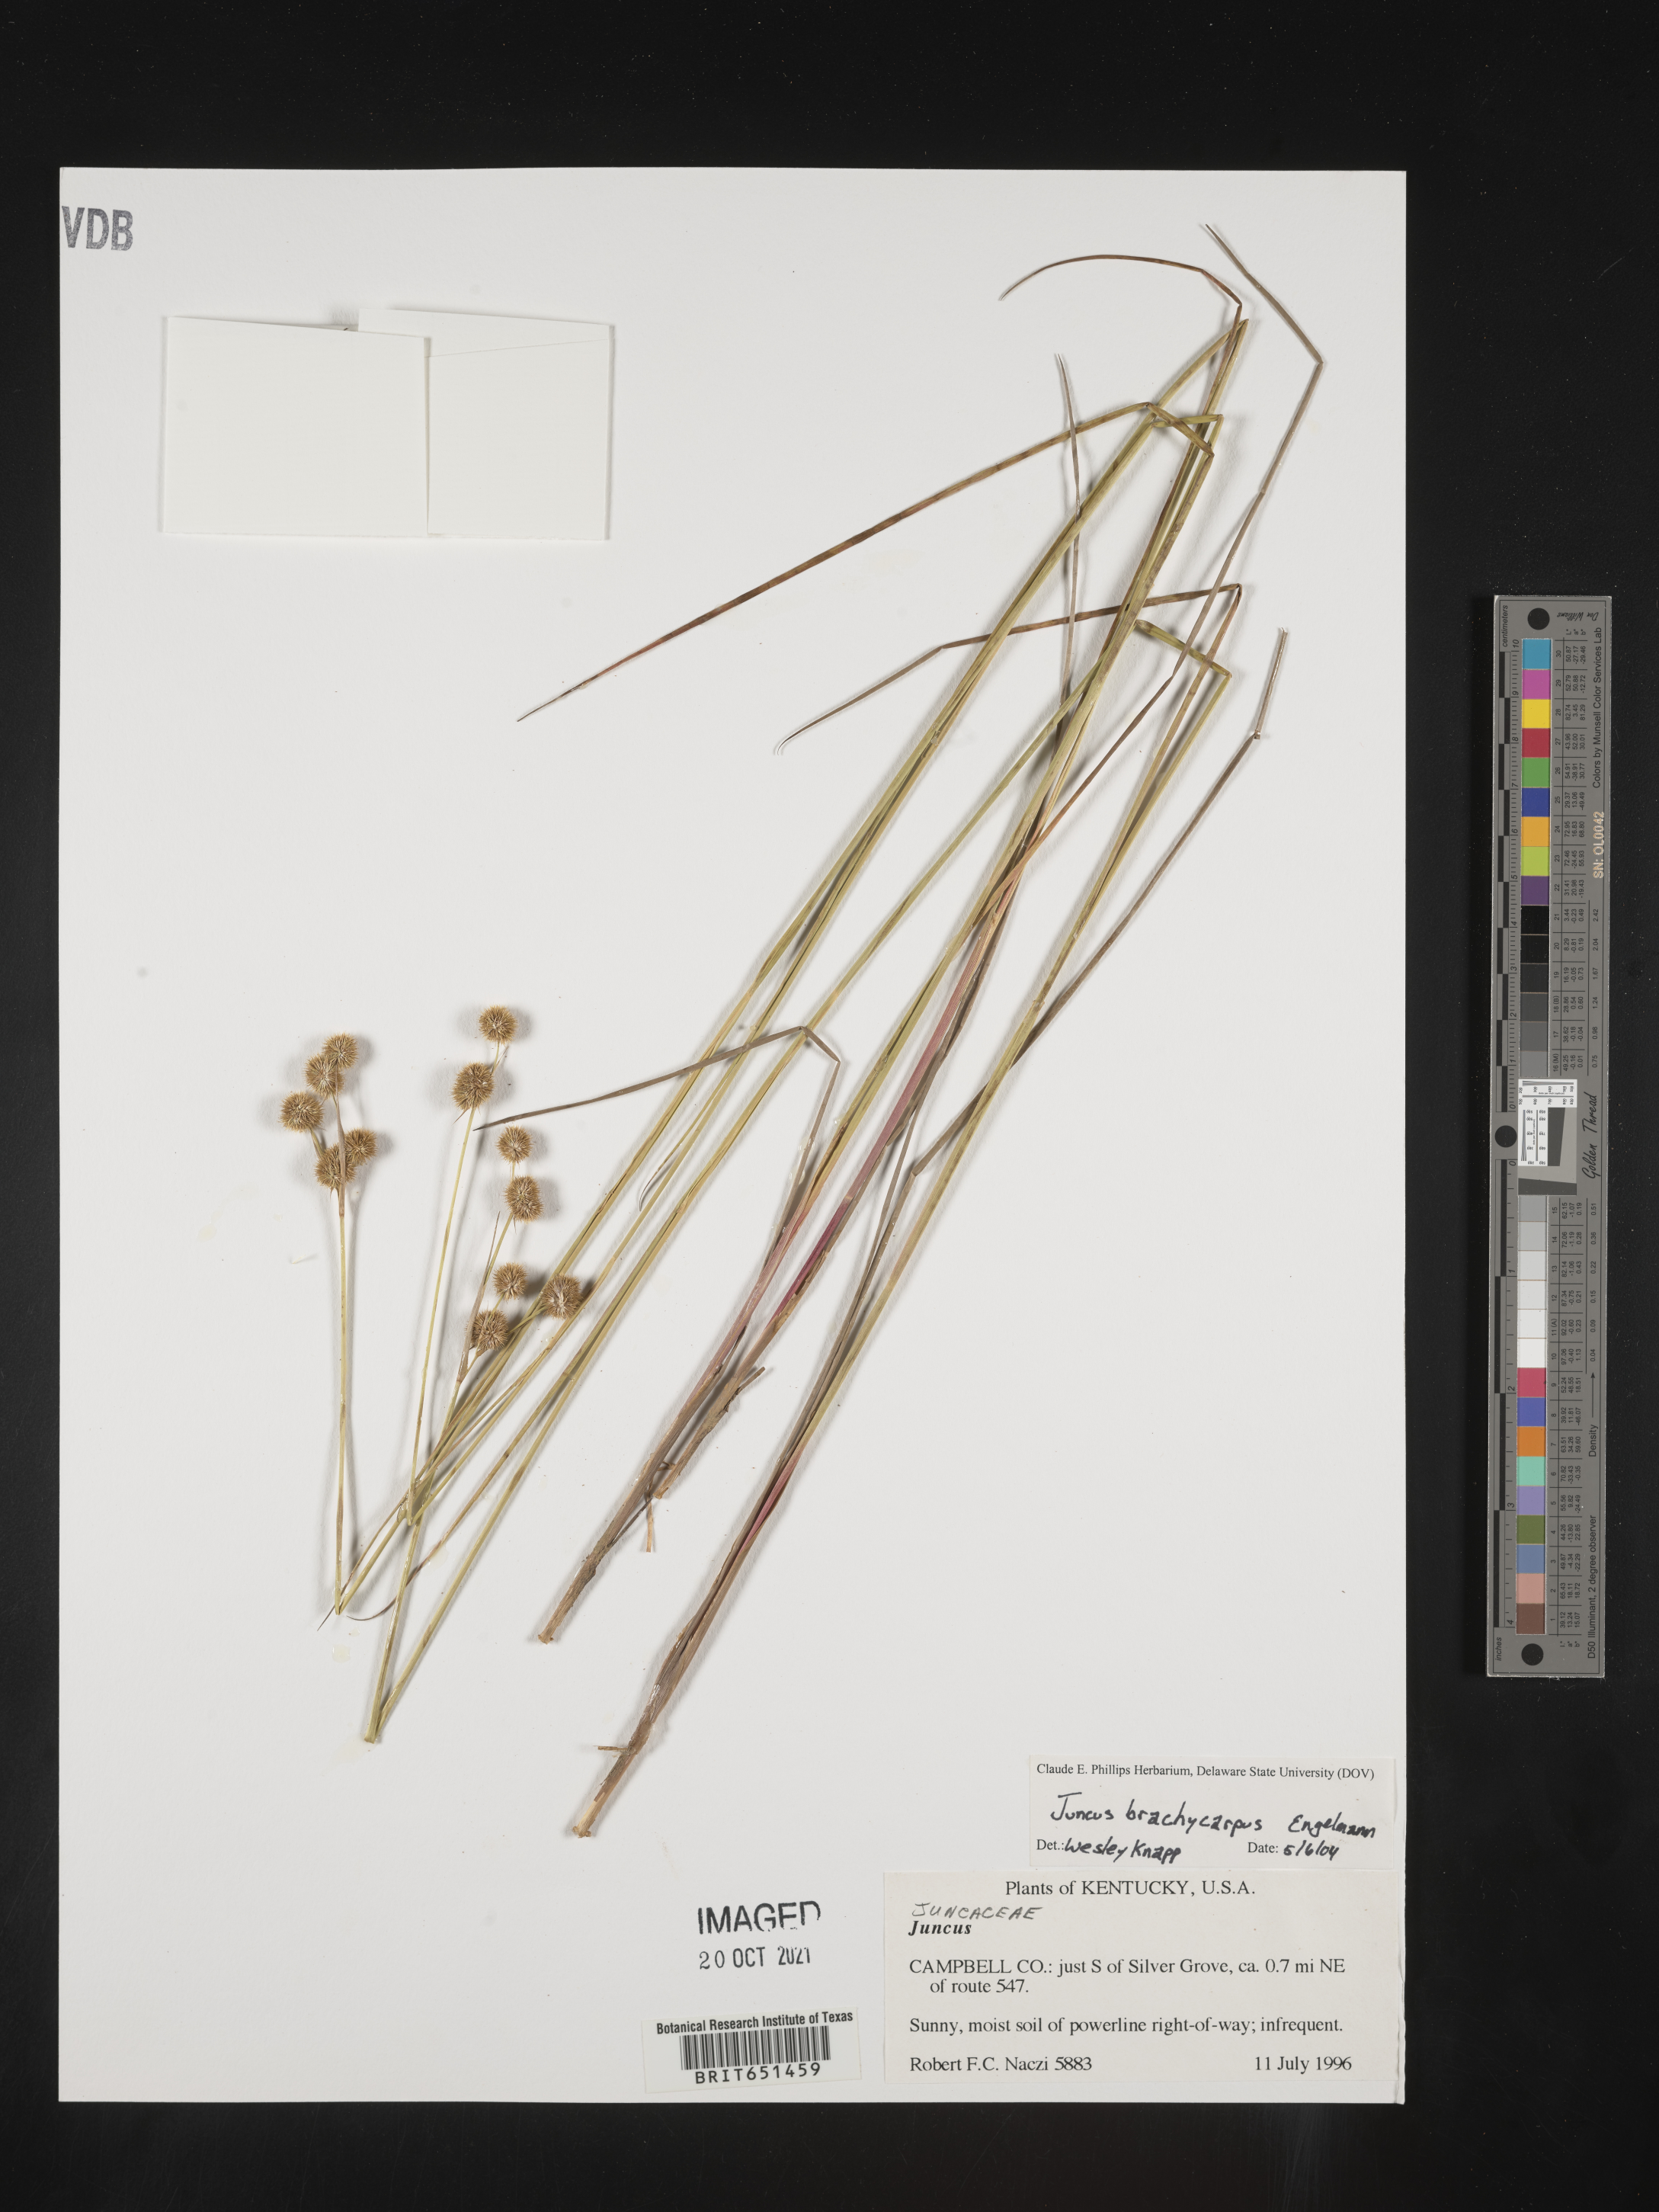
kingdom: Plantae
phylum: Tracheophyta
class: Liliopsida
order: Poales
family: Juncaceae
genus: Juncus
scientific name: Juncus brachycarpus
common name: Shore rush
